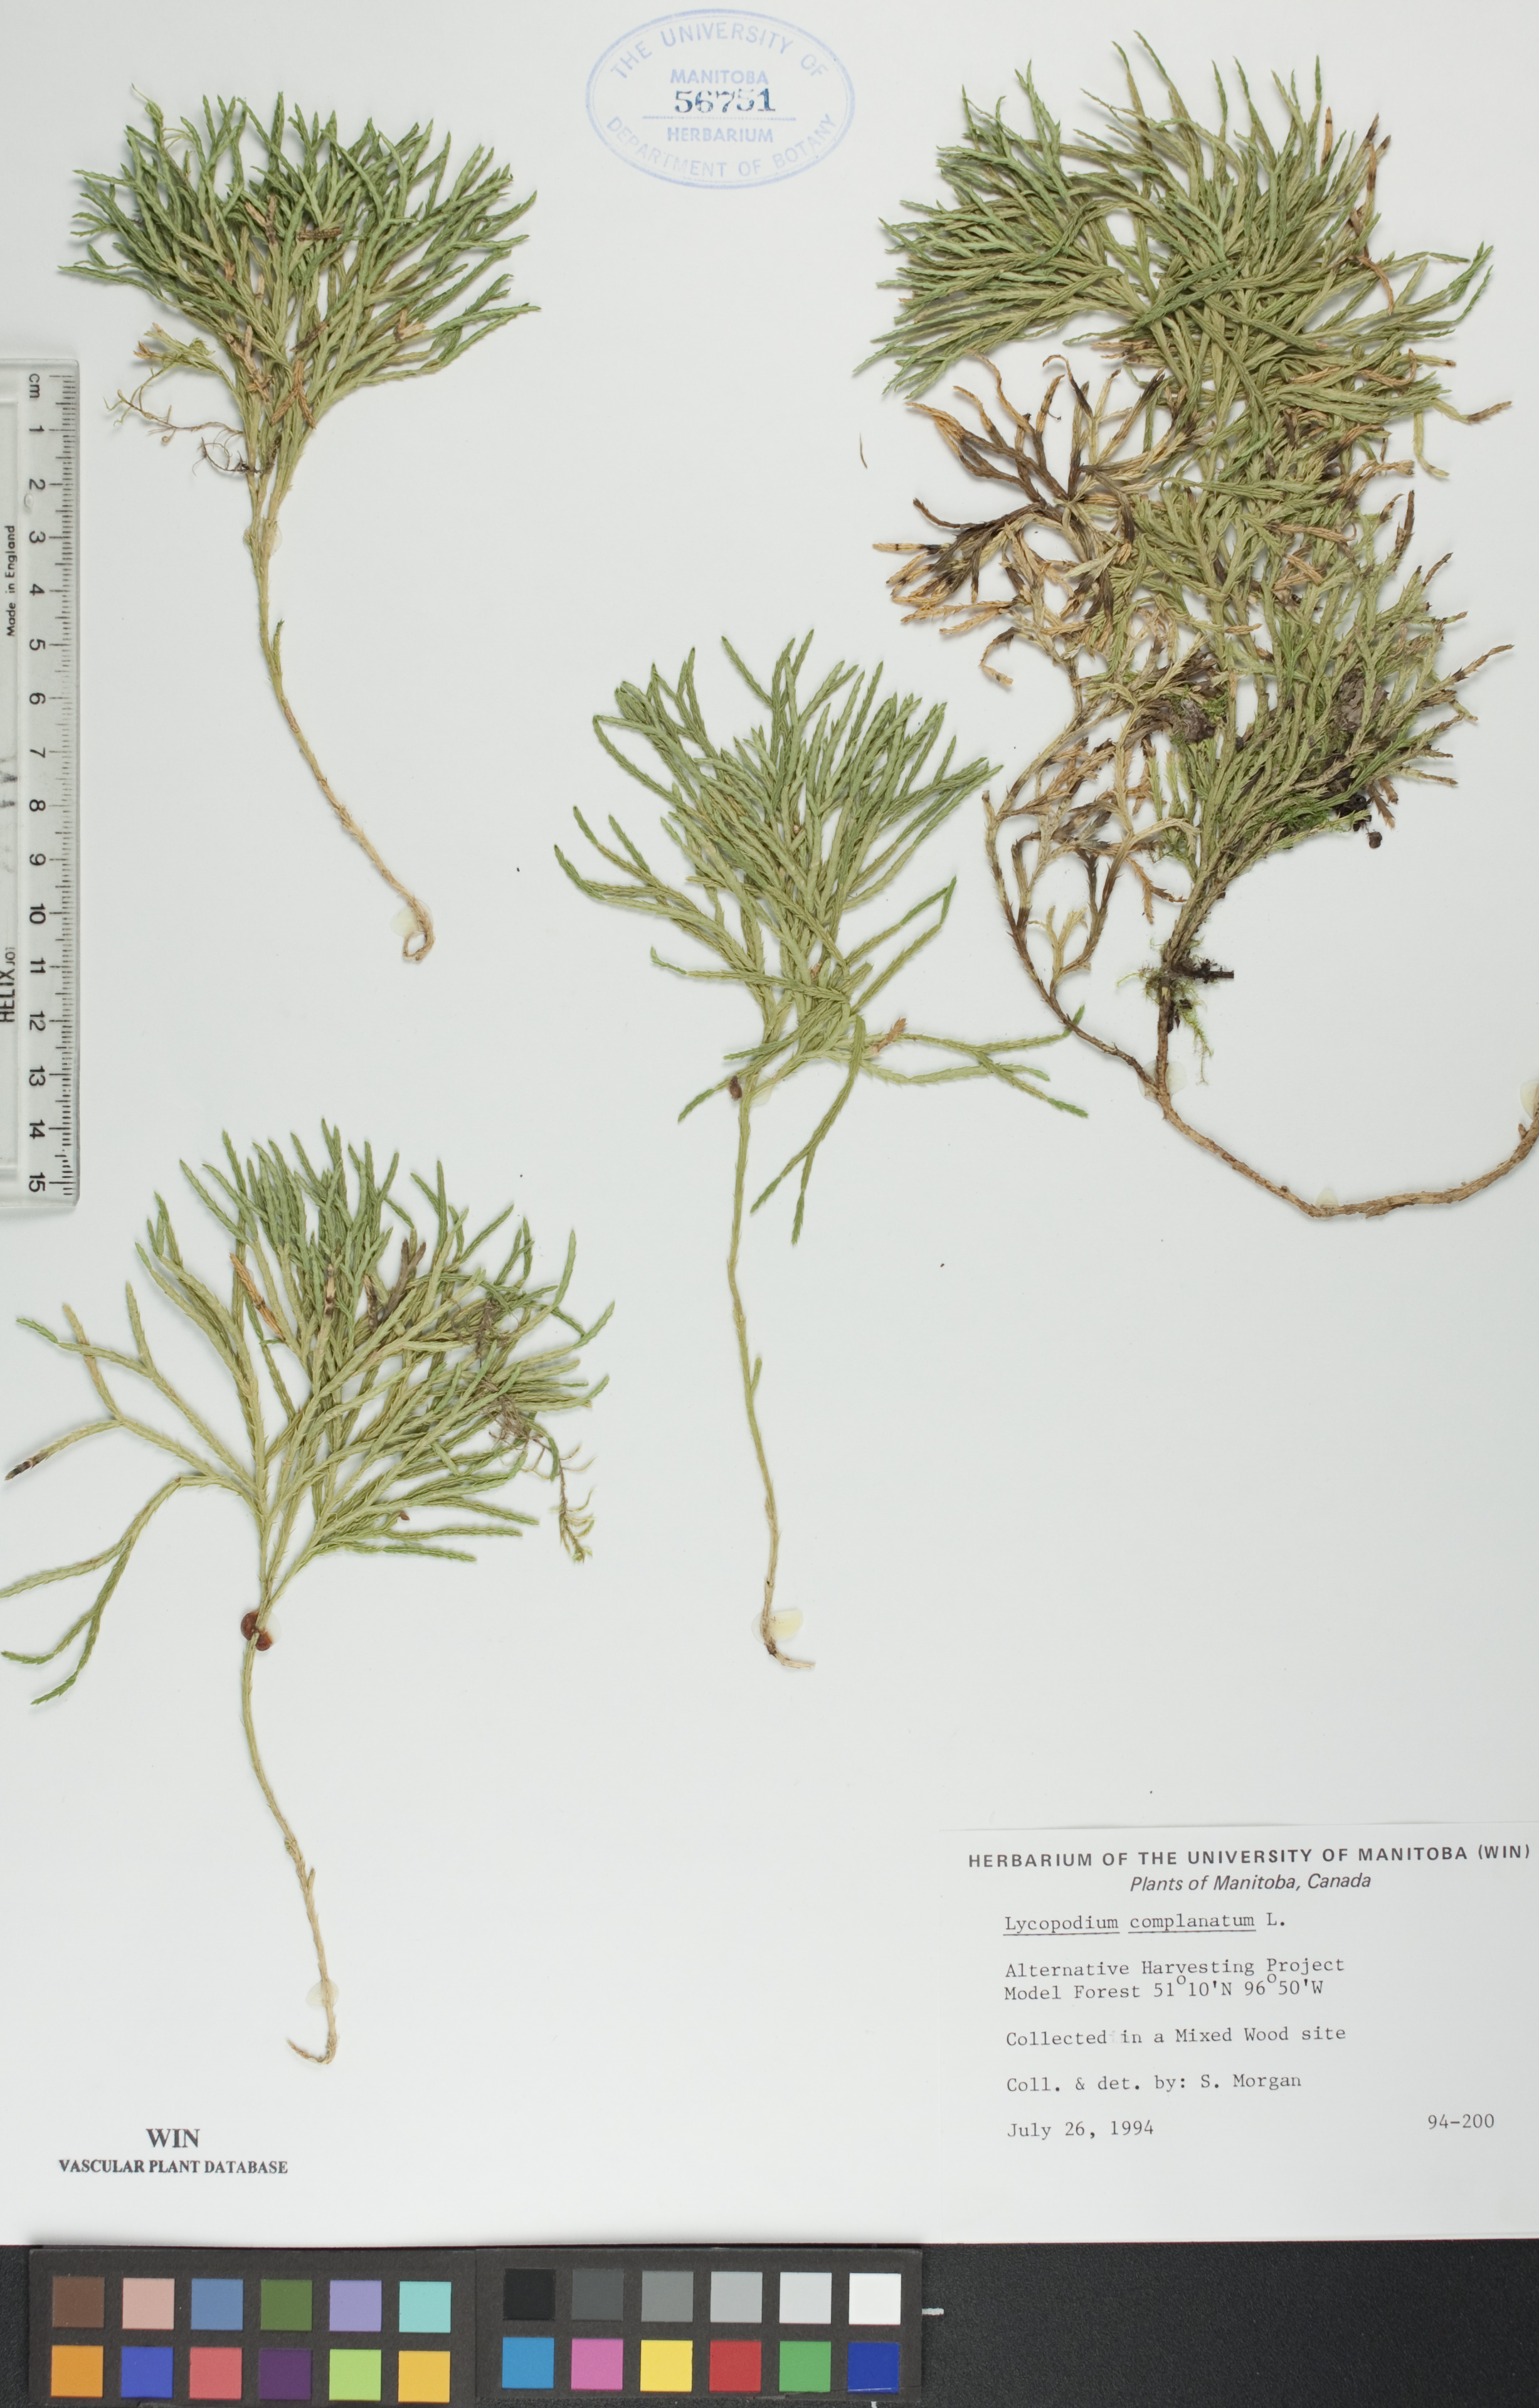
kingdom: Plantae
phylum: Tracheophyta
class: Lycopodiopsida
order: Lycopodiales
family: Lycopodiaceae
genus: Diphasiastrum
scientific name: Diphasiastrum
